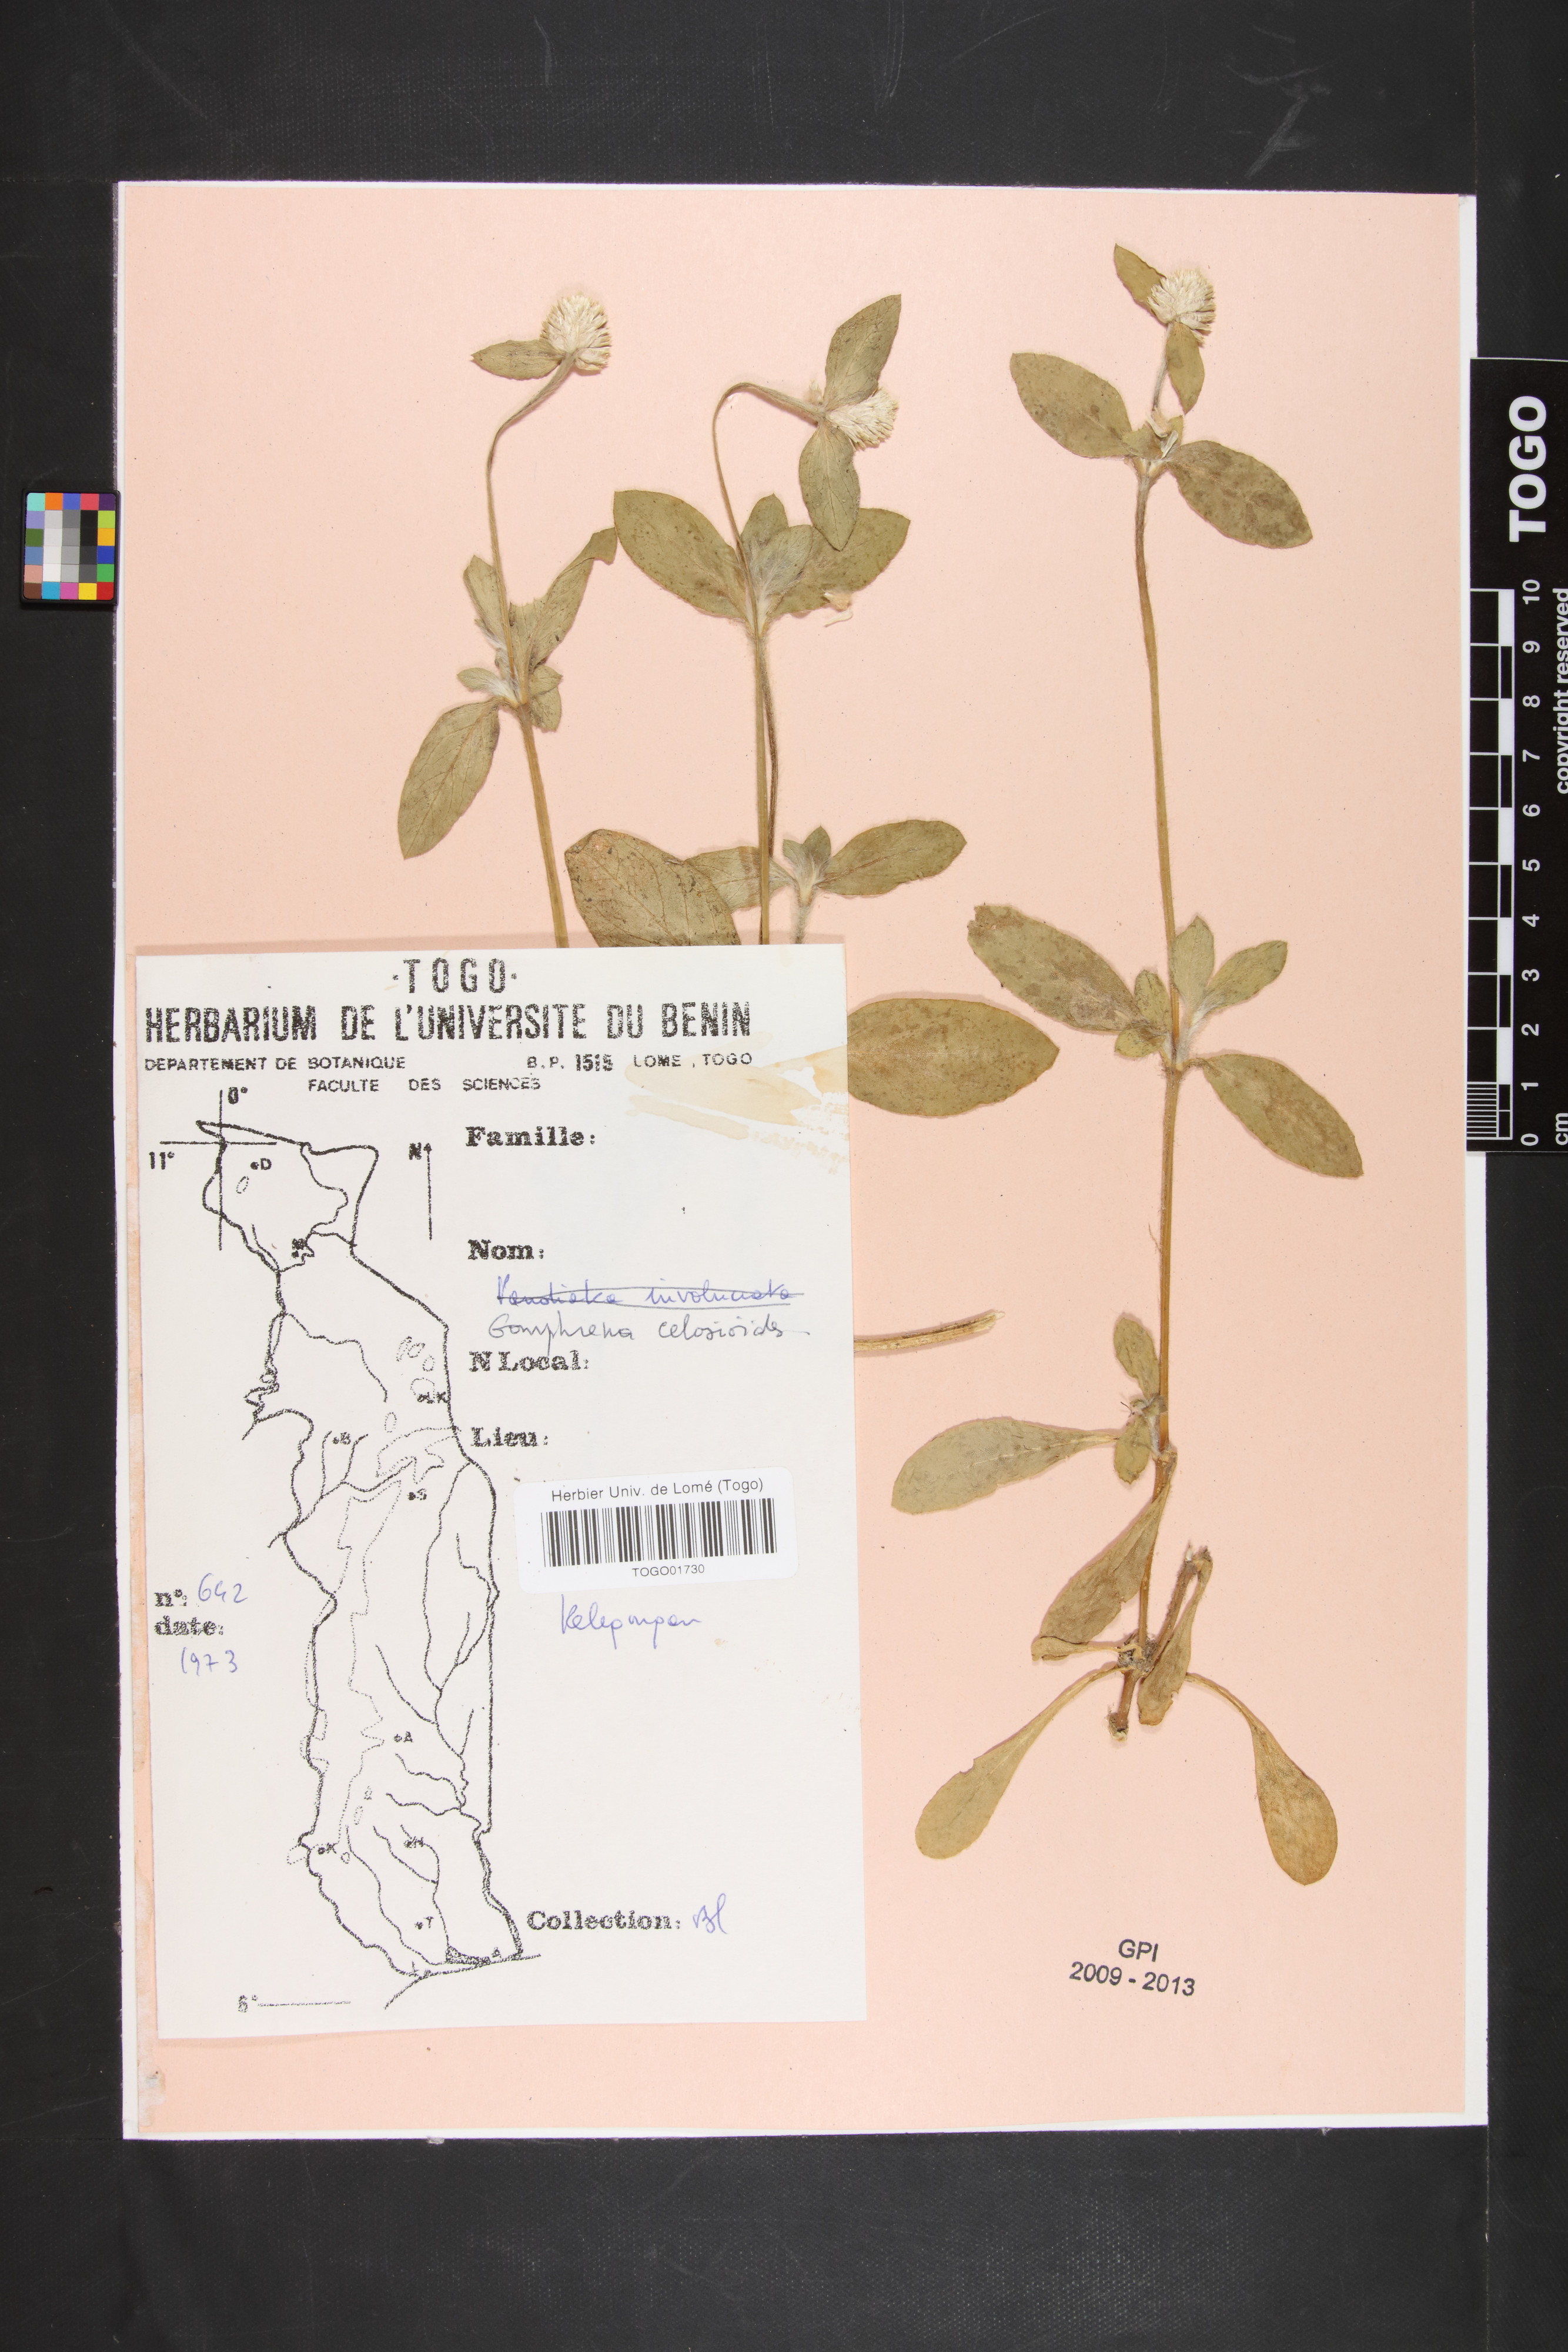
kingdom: Plantae
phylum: Tracheophyta
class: Magnoliopsida
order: Caryophyllales
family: Amaranthaceae
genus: Gomphrena
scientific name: Gomphrena celosioides
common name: Gomphrena-weed
